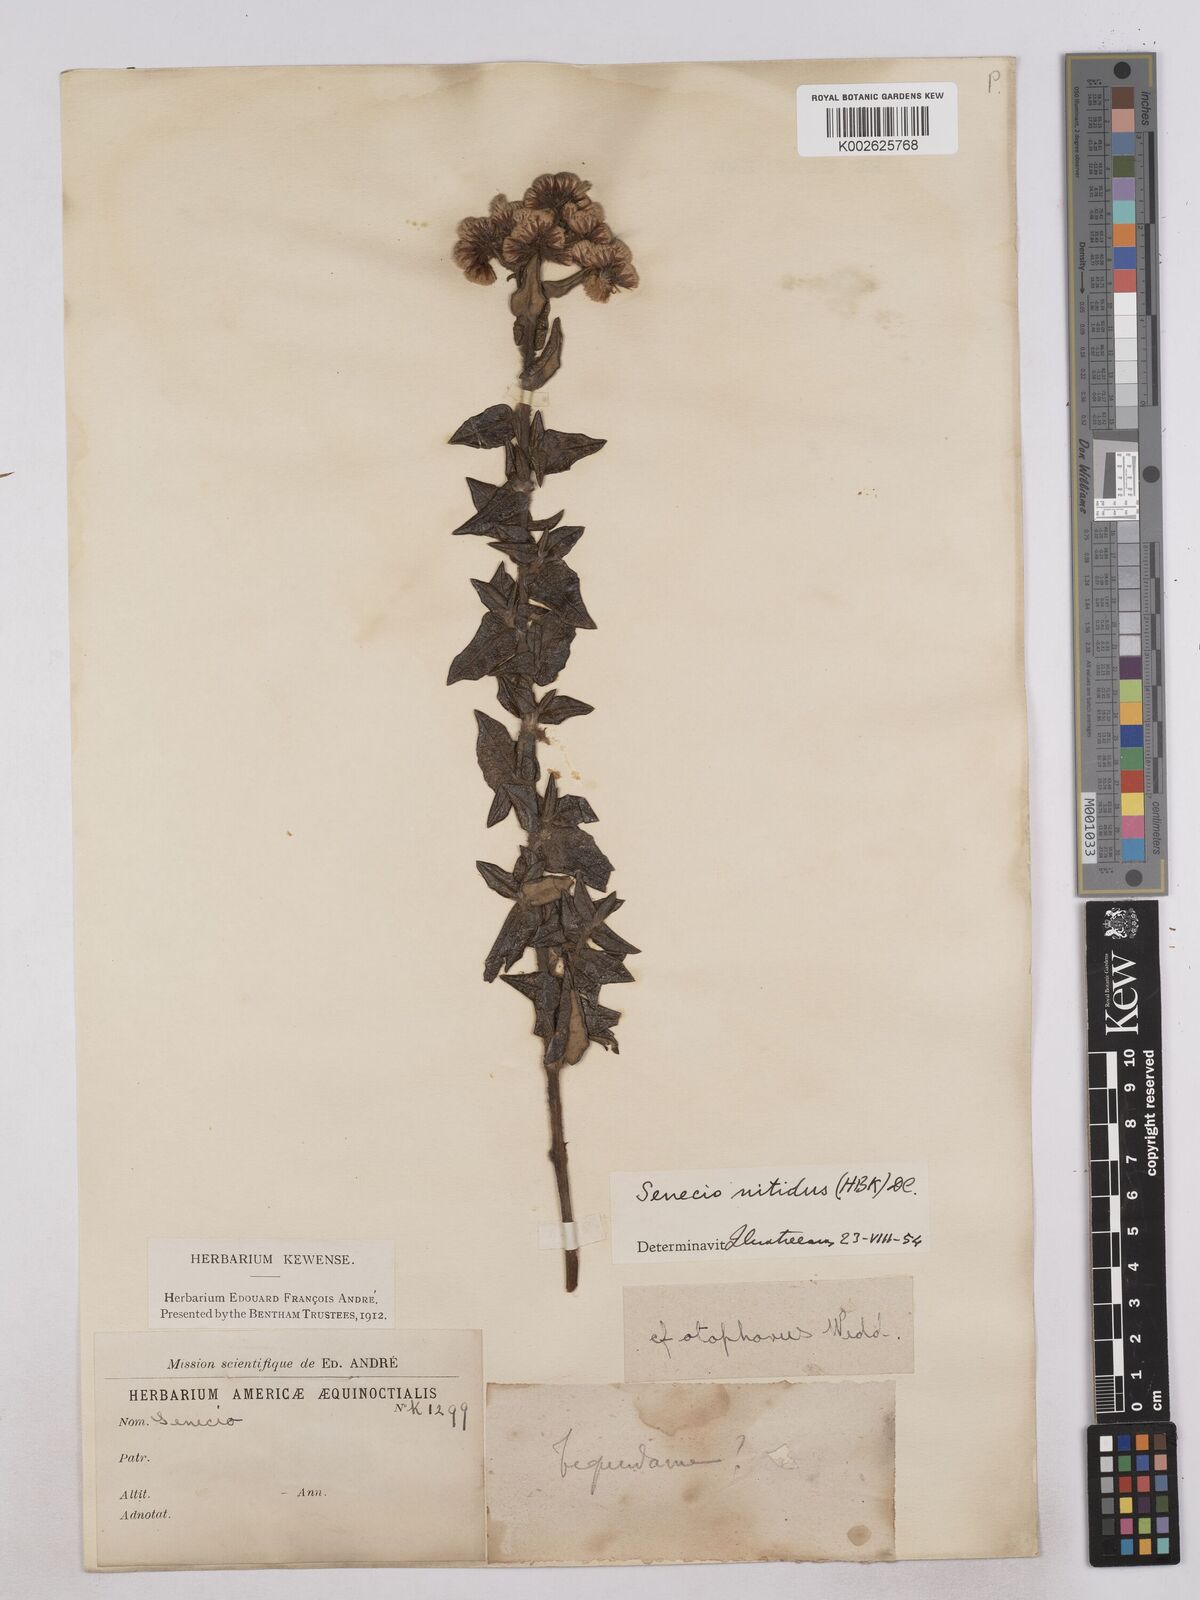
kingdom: Plantae
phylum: Tracheophyta
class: Magnoliopsida
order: Asterales
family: Asteraceae
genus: Monticalia
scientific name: Monticalia
